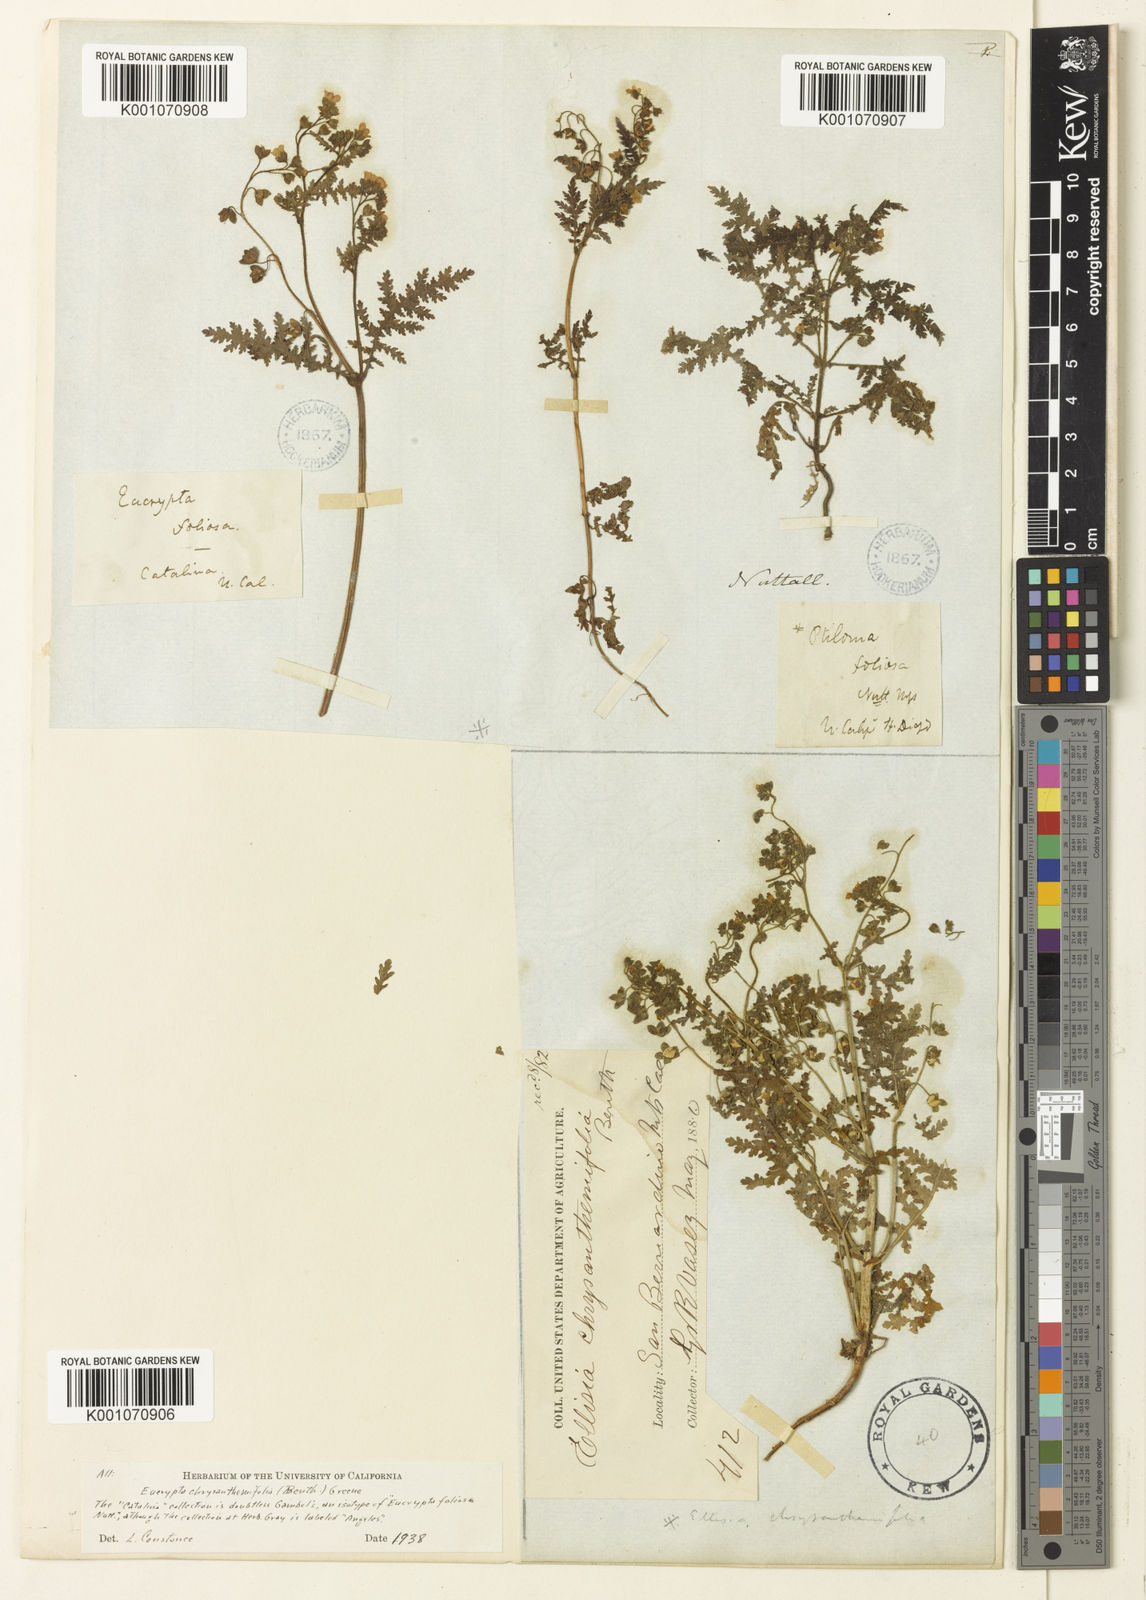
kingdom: Plantae
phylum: Tracheophyta
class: Magnoliopsida
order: Boraginales
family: Hydrophyllaceae
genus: Eucrypta
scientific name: Eucrypta chrysanthemifolia
